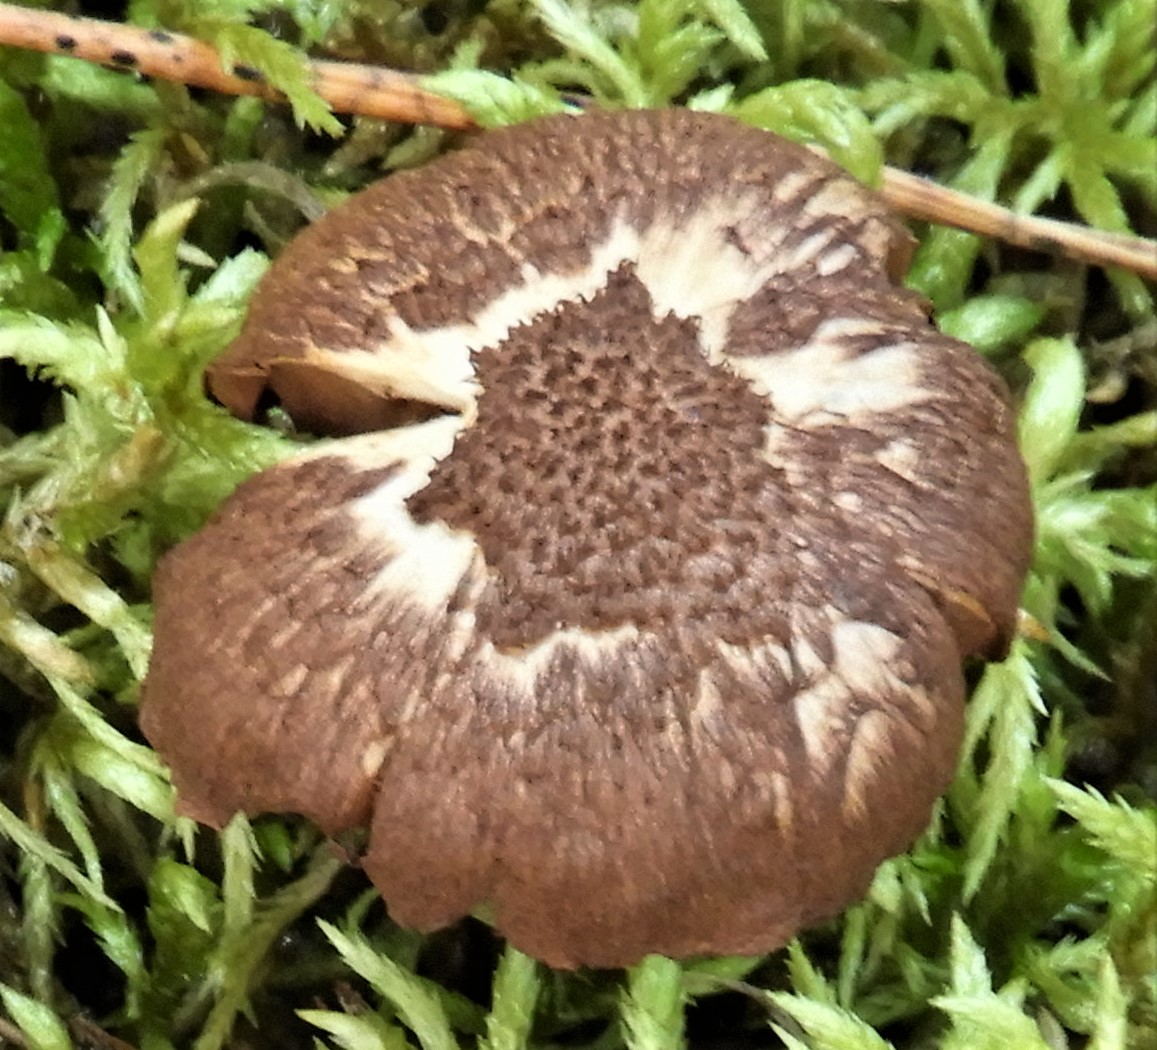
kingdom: Fungi
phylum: Basidiomycota
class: Agaricomycetes
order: Agaricales
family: Inocybaceae
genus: Inocybe
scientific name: Inocybe
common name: trævlhat
